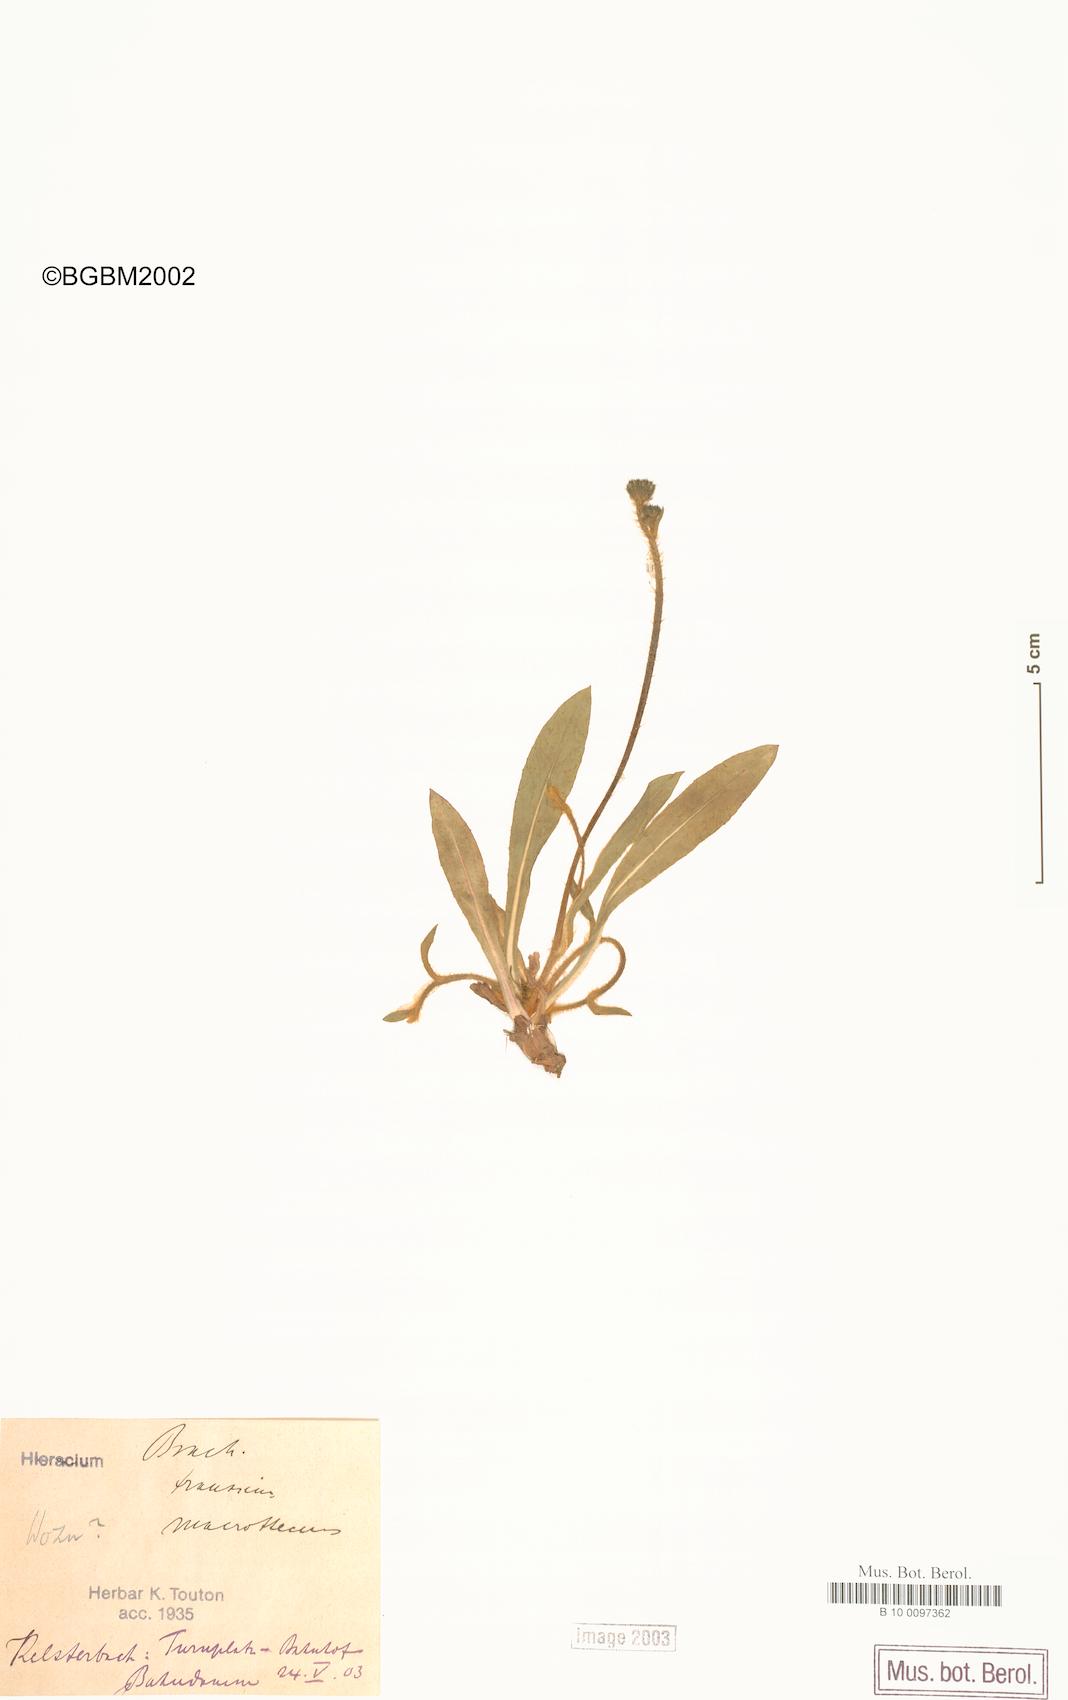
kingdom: Plantae
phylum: Tracheophyta
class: Magnoliopsida
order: Asterales
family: Asteraceae
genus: Pilosella
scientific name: Pilosella acutifolia
